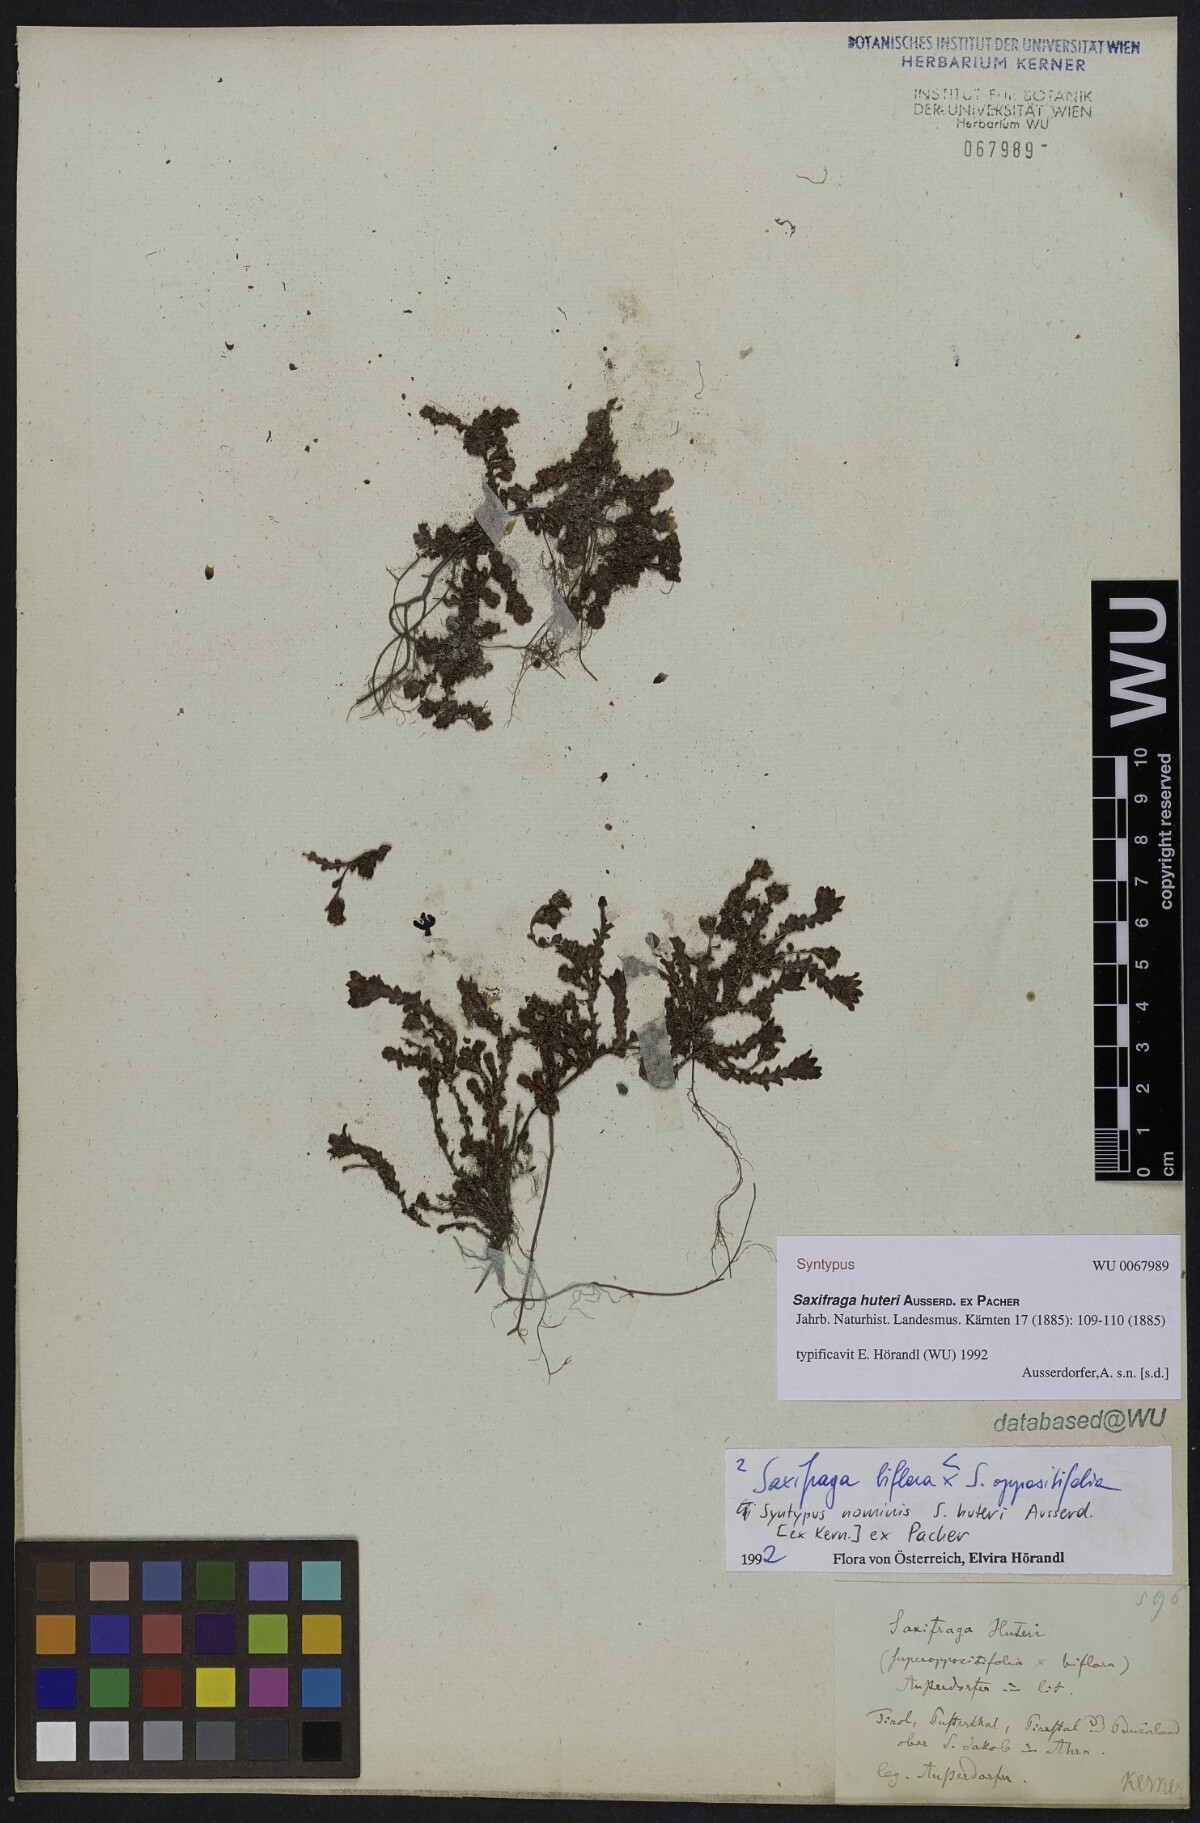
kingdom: Plantae
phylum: Tracheophyta
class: Magnoliopsida
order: Saxifragales
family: Saxifragaceae
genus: Saxifraga
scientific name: Saxifraga
